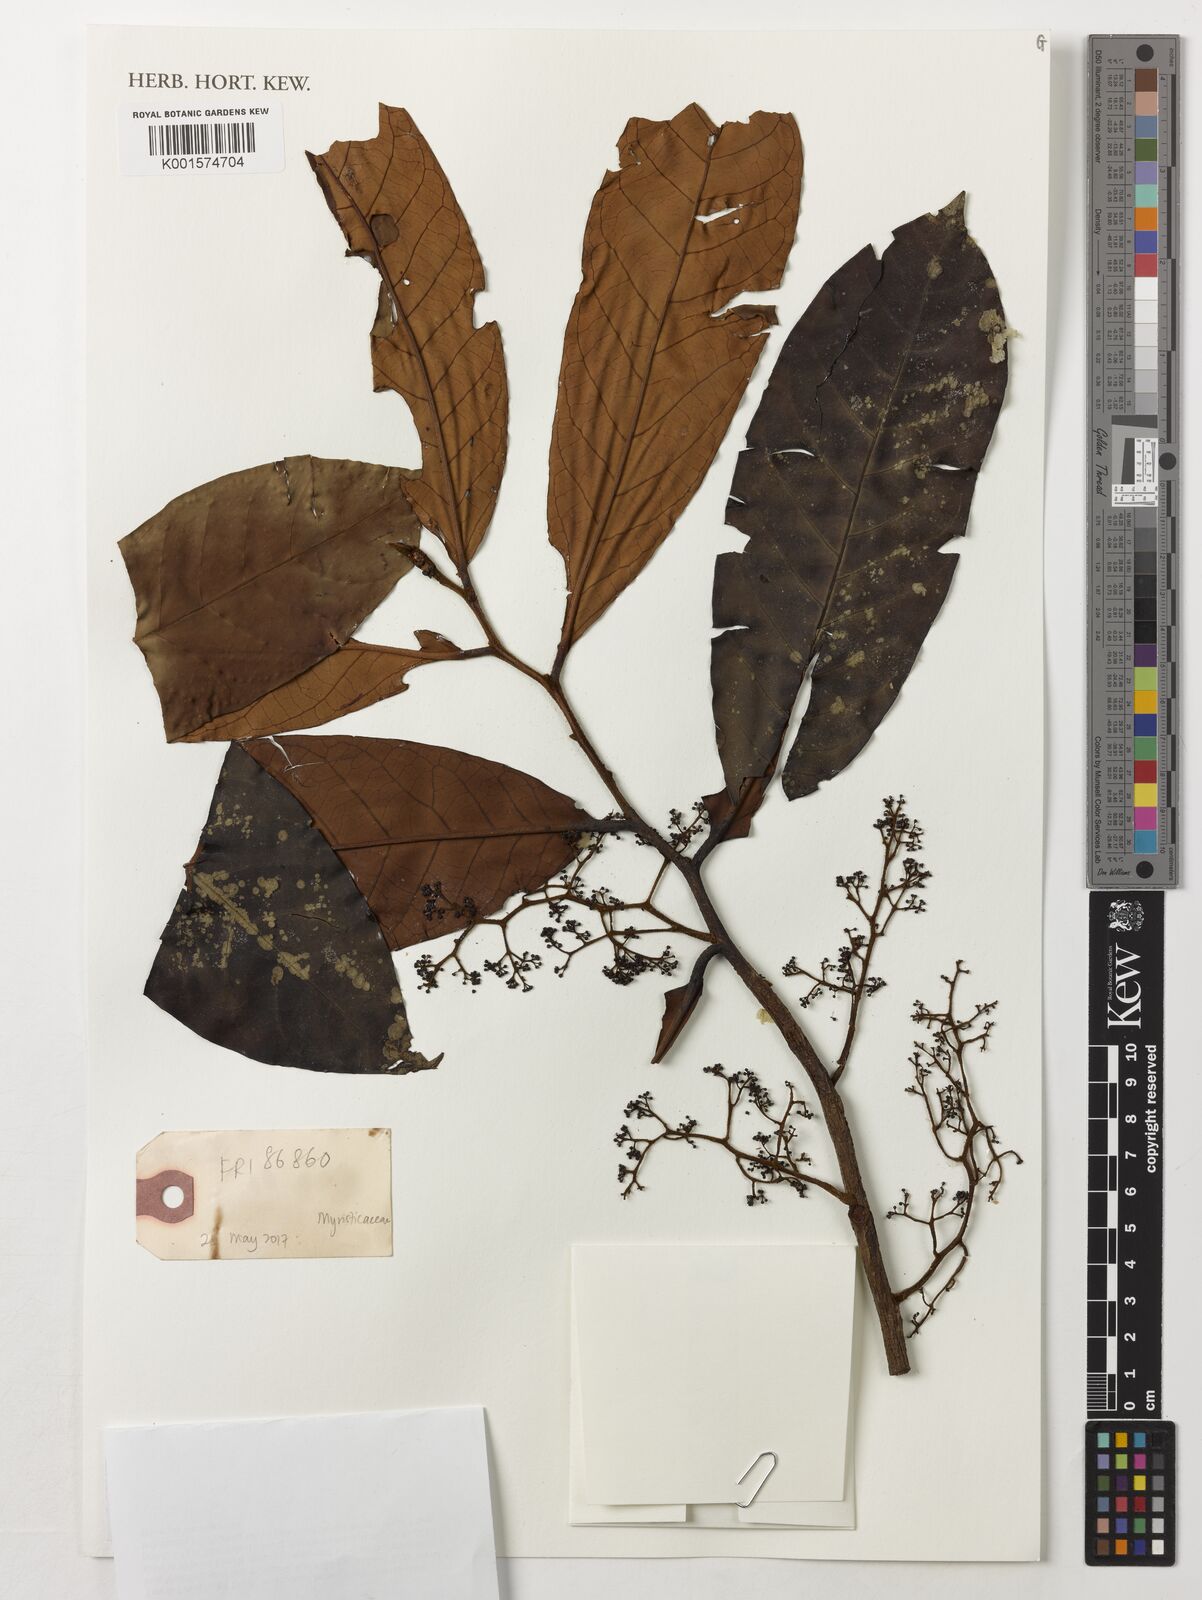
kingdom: Plantae
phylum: Tracheophyta
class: Magnoliopsida
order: Magnoliales
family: Myristicaceae
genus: Horsfieldia
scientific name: Horsfieldia polyspherula
